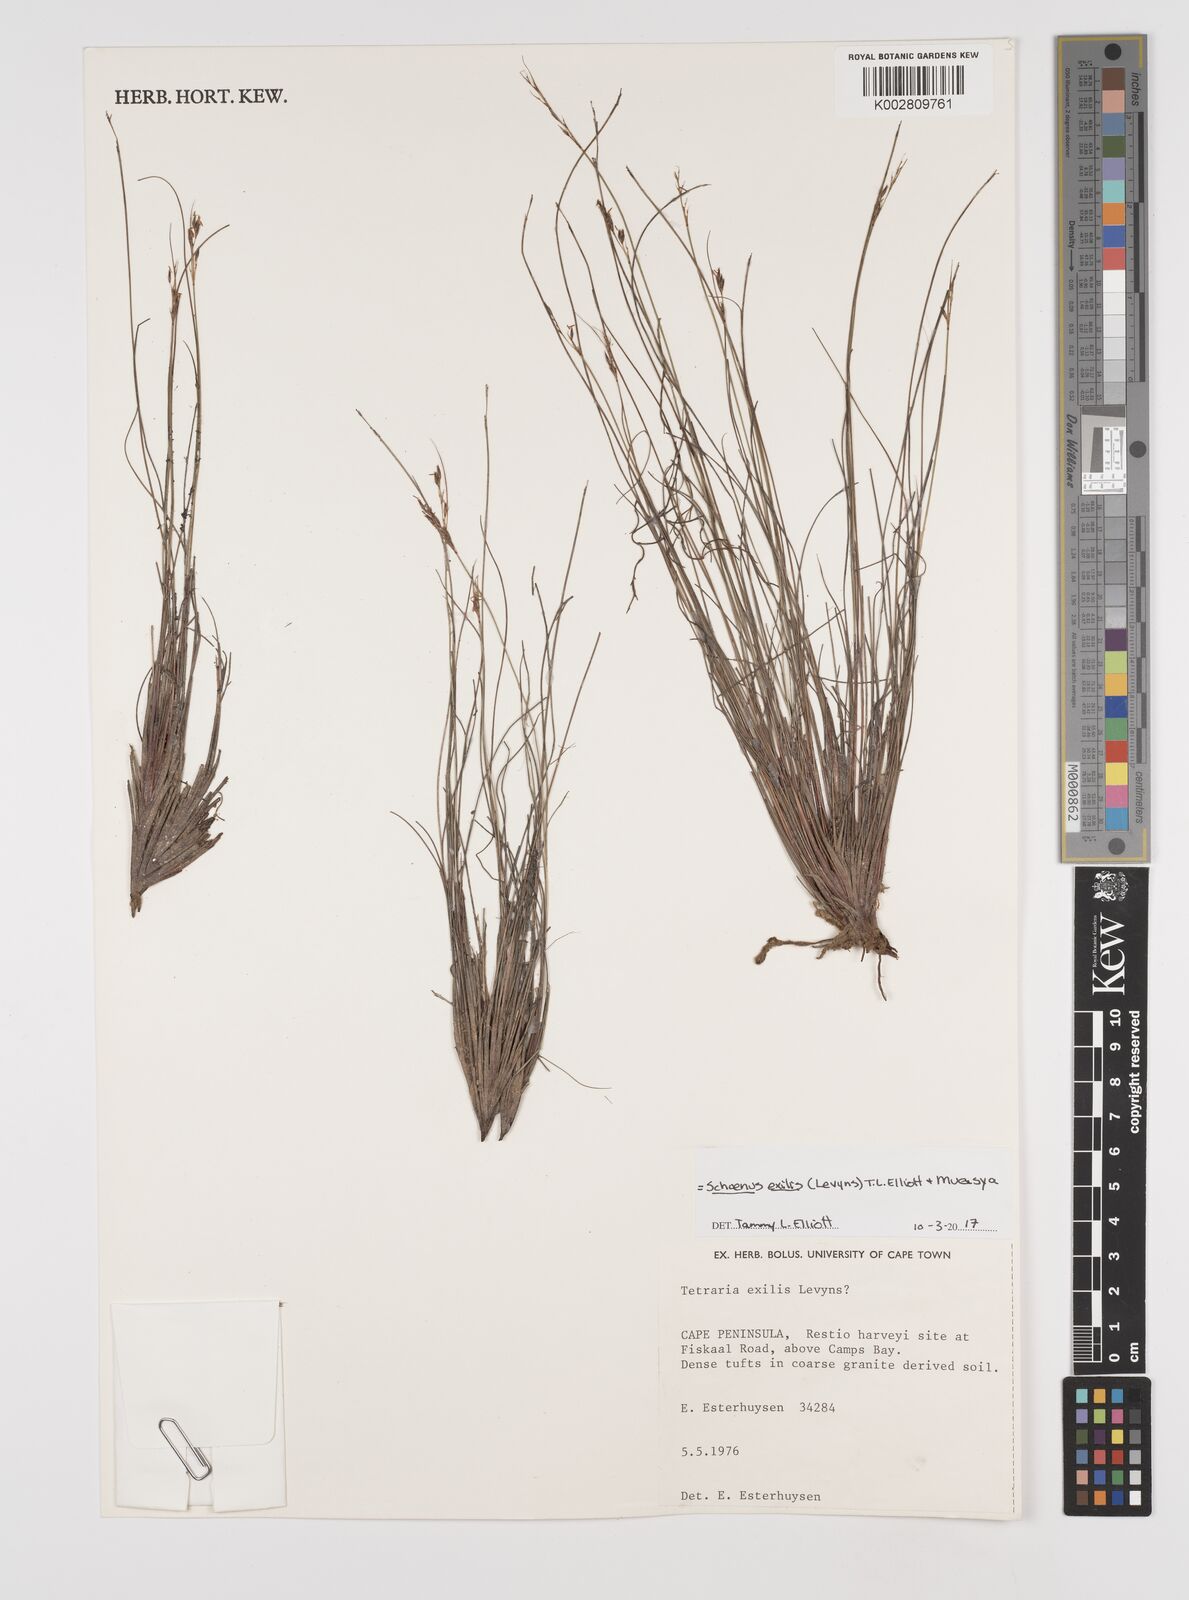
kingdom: Plantae
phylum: Tracheophyta
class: Liliopsida
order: Poales
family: Cyperaceae
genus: Schoenus
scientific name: Schoenus exilis
